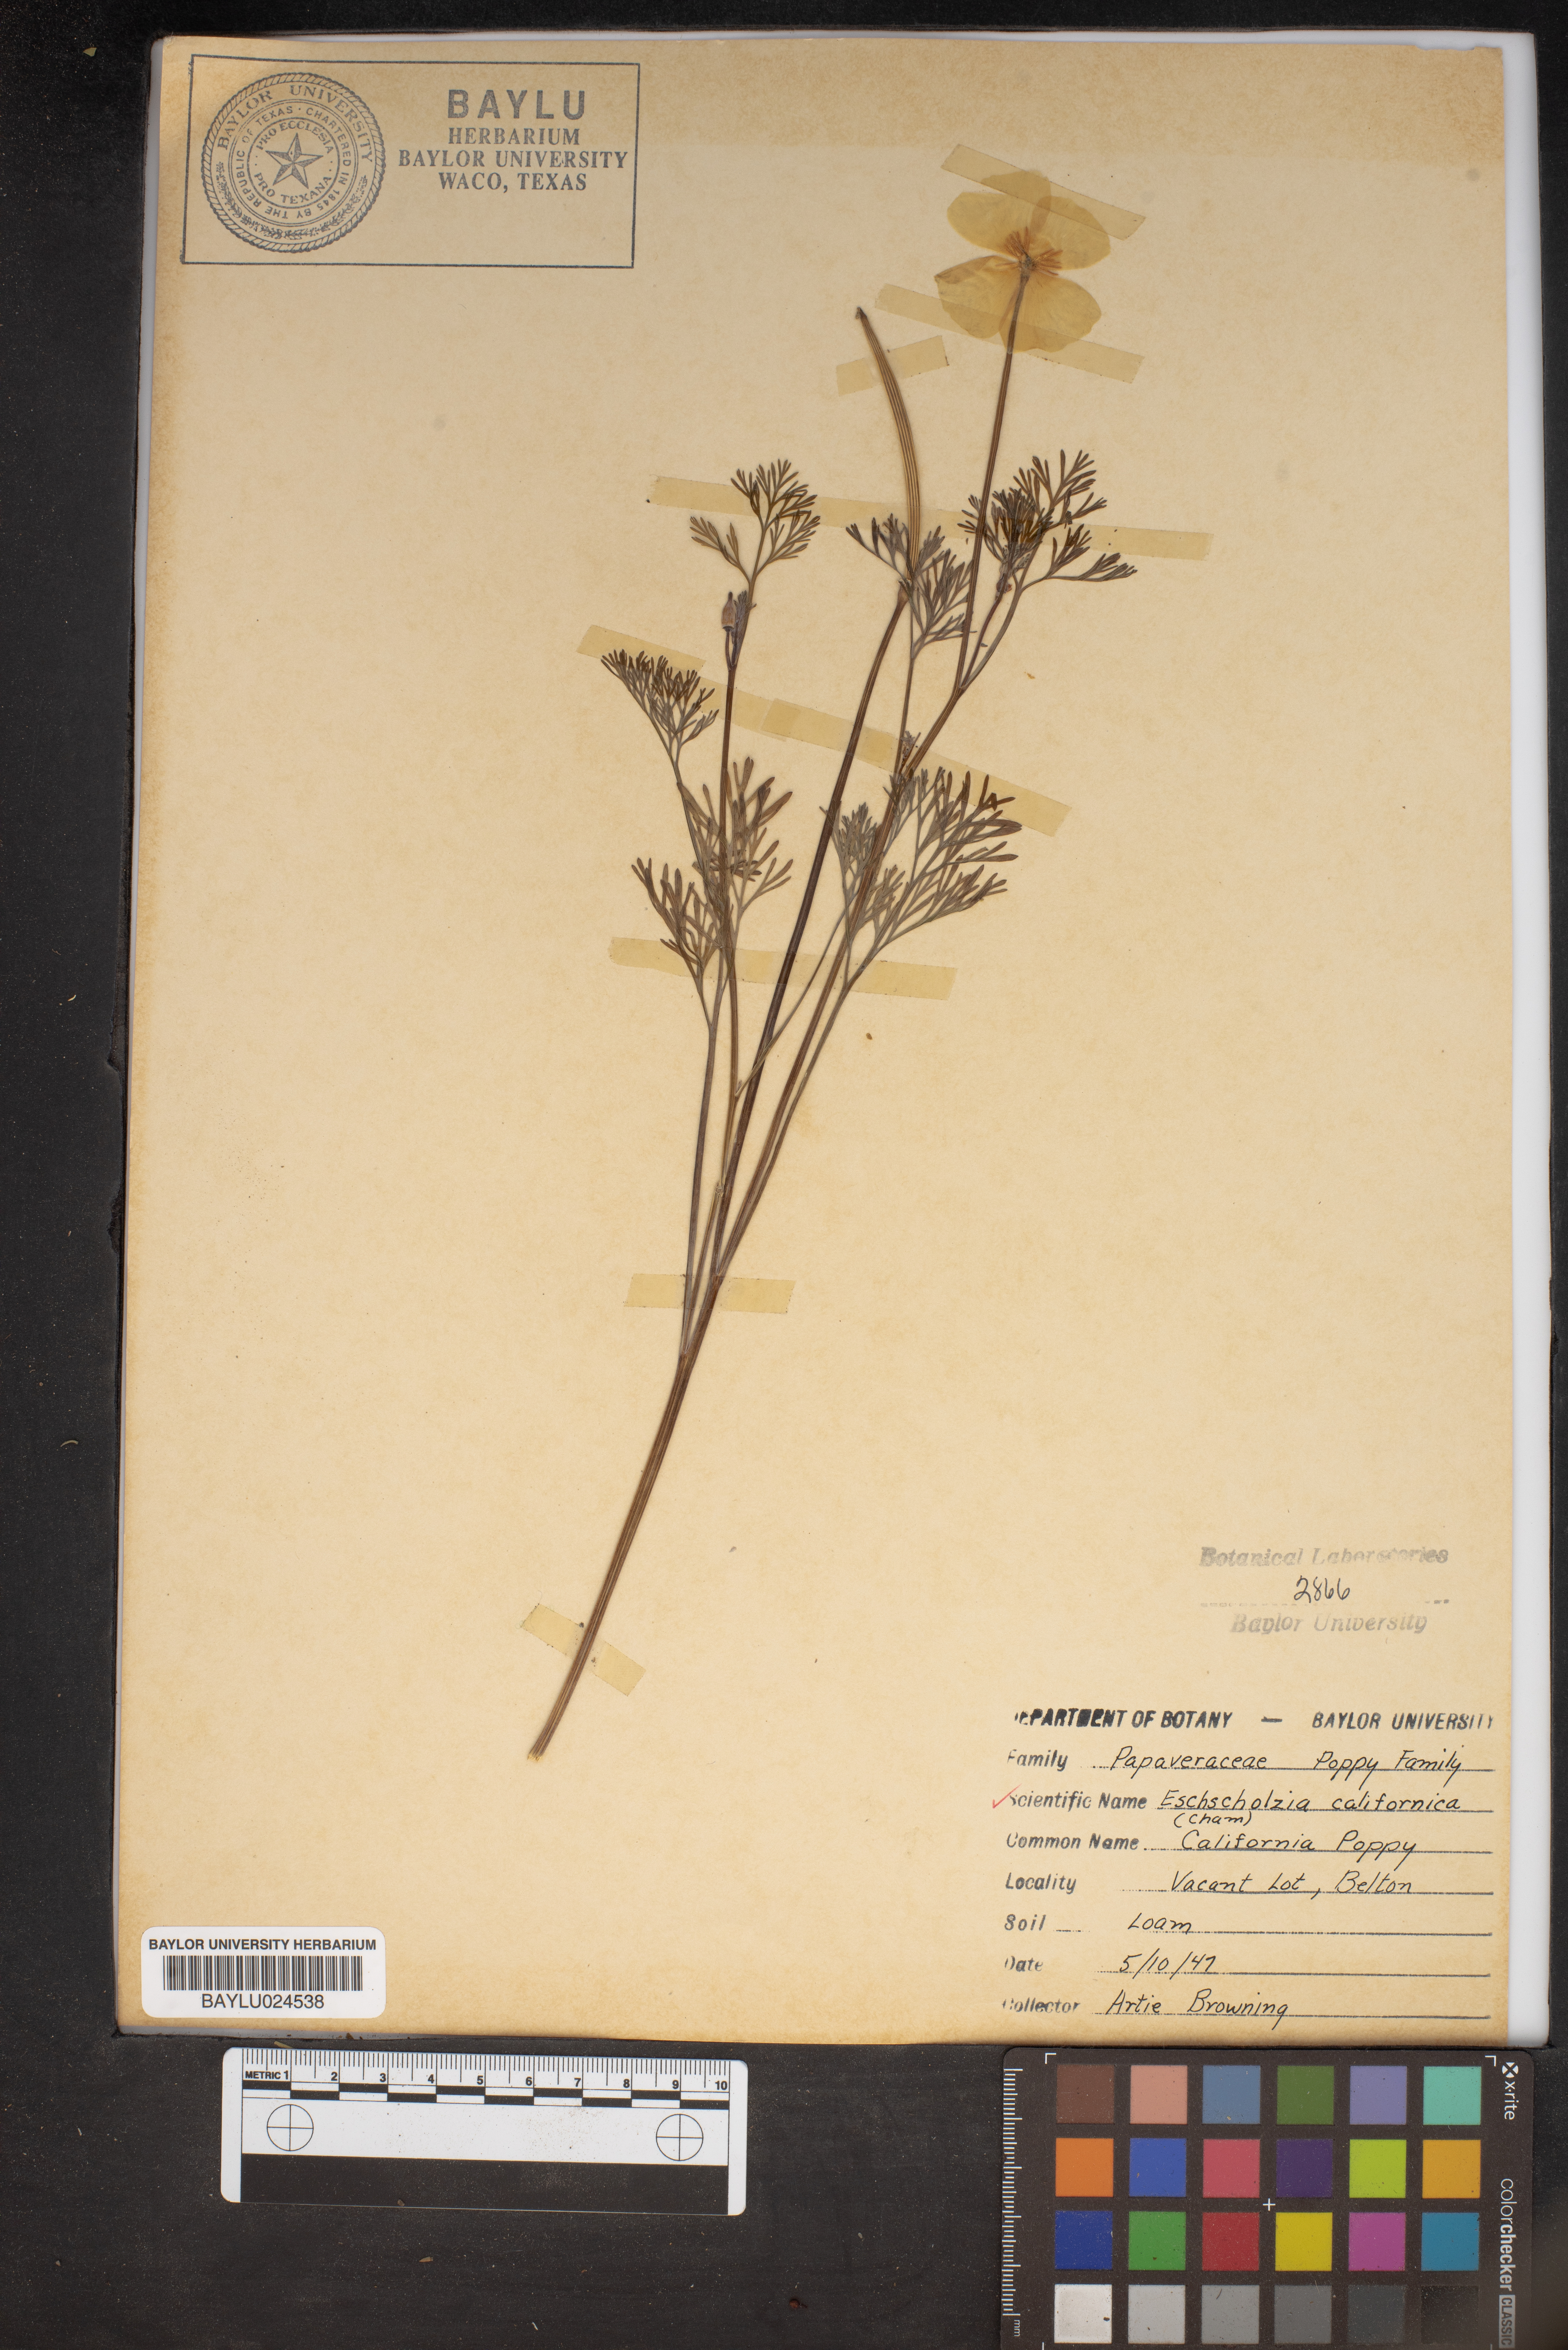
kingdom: Plantae
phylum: Tracheophyta
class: Magnoliopsida
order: Ranunculales
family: Papaveraceae
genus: Eschscholzia
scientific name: Eschscholzia californica
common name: California poppy
